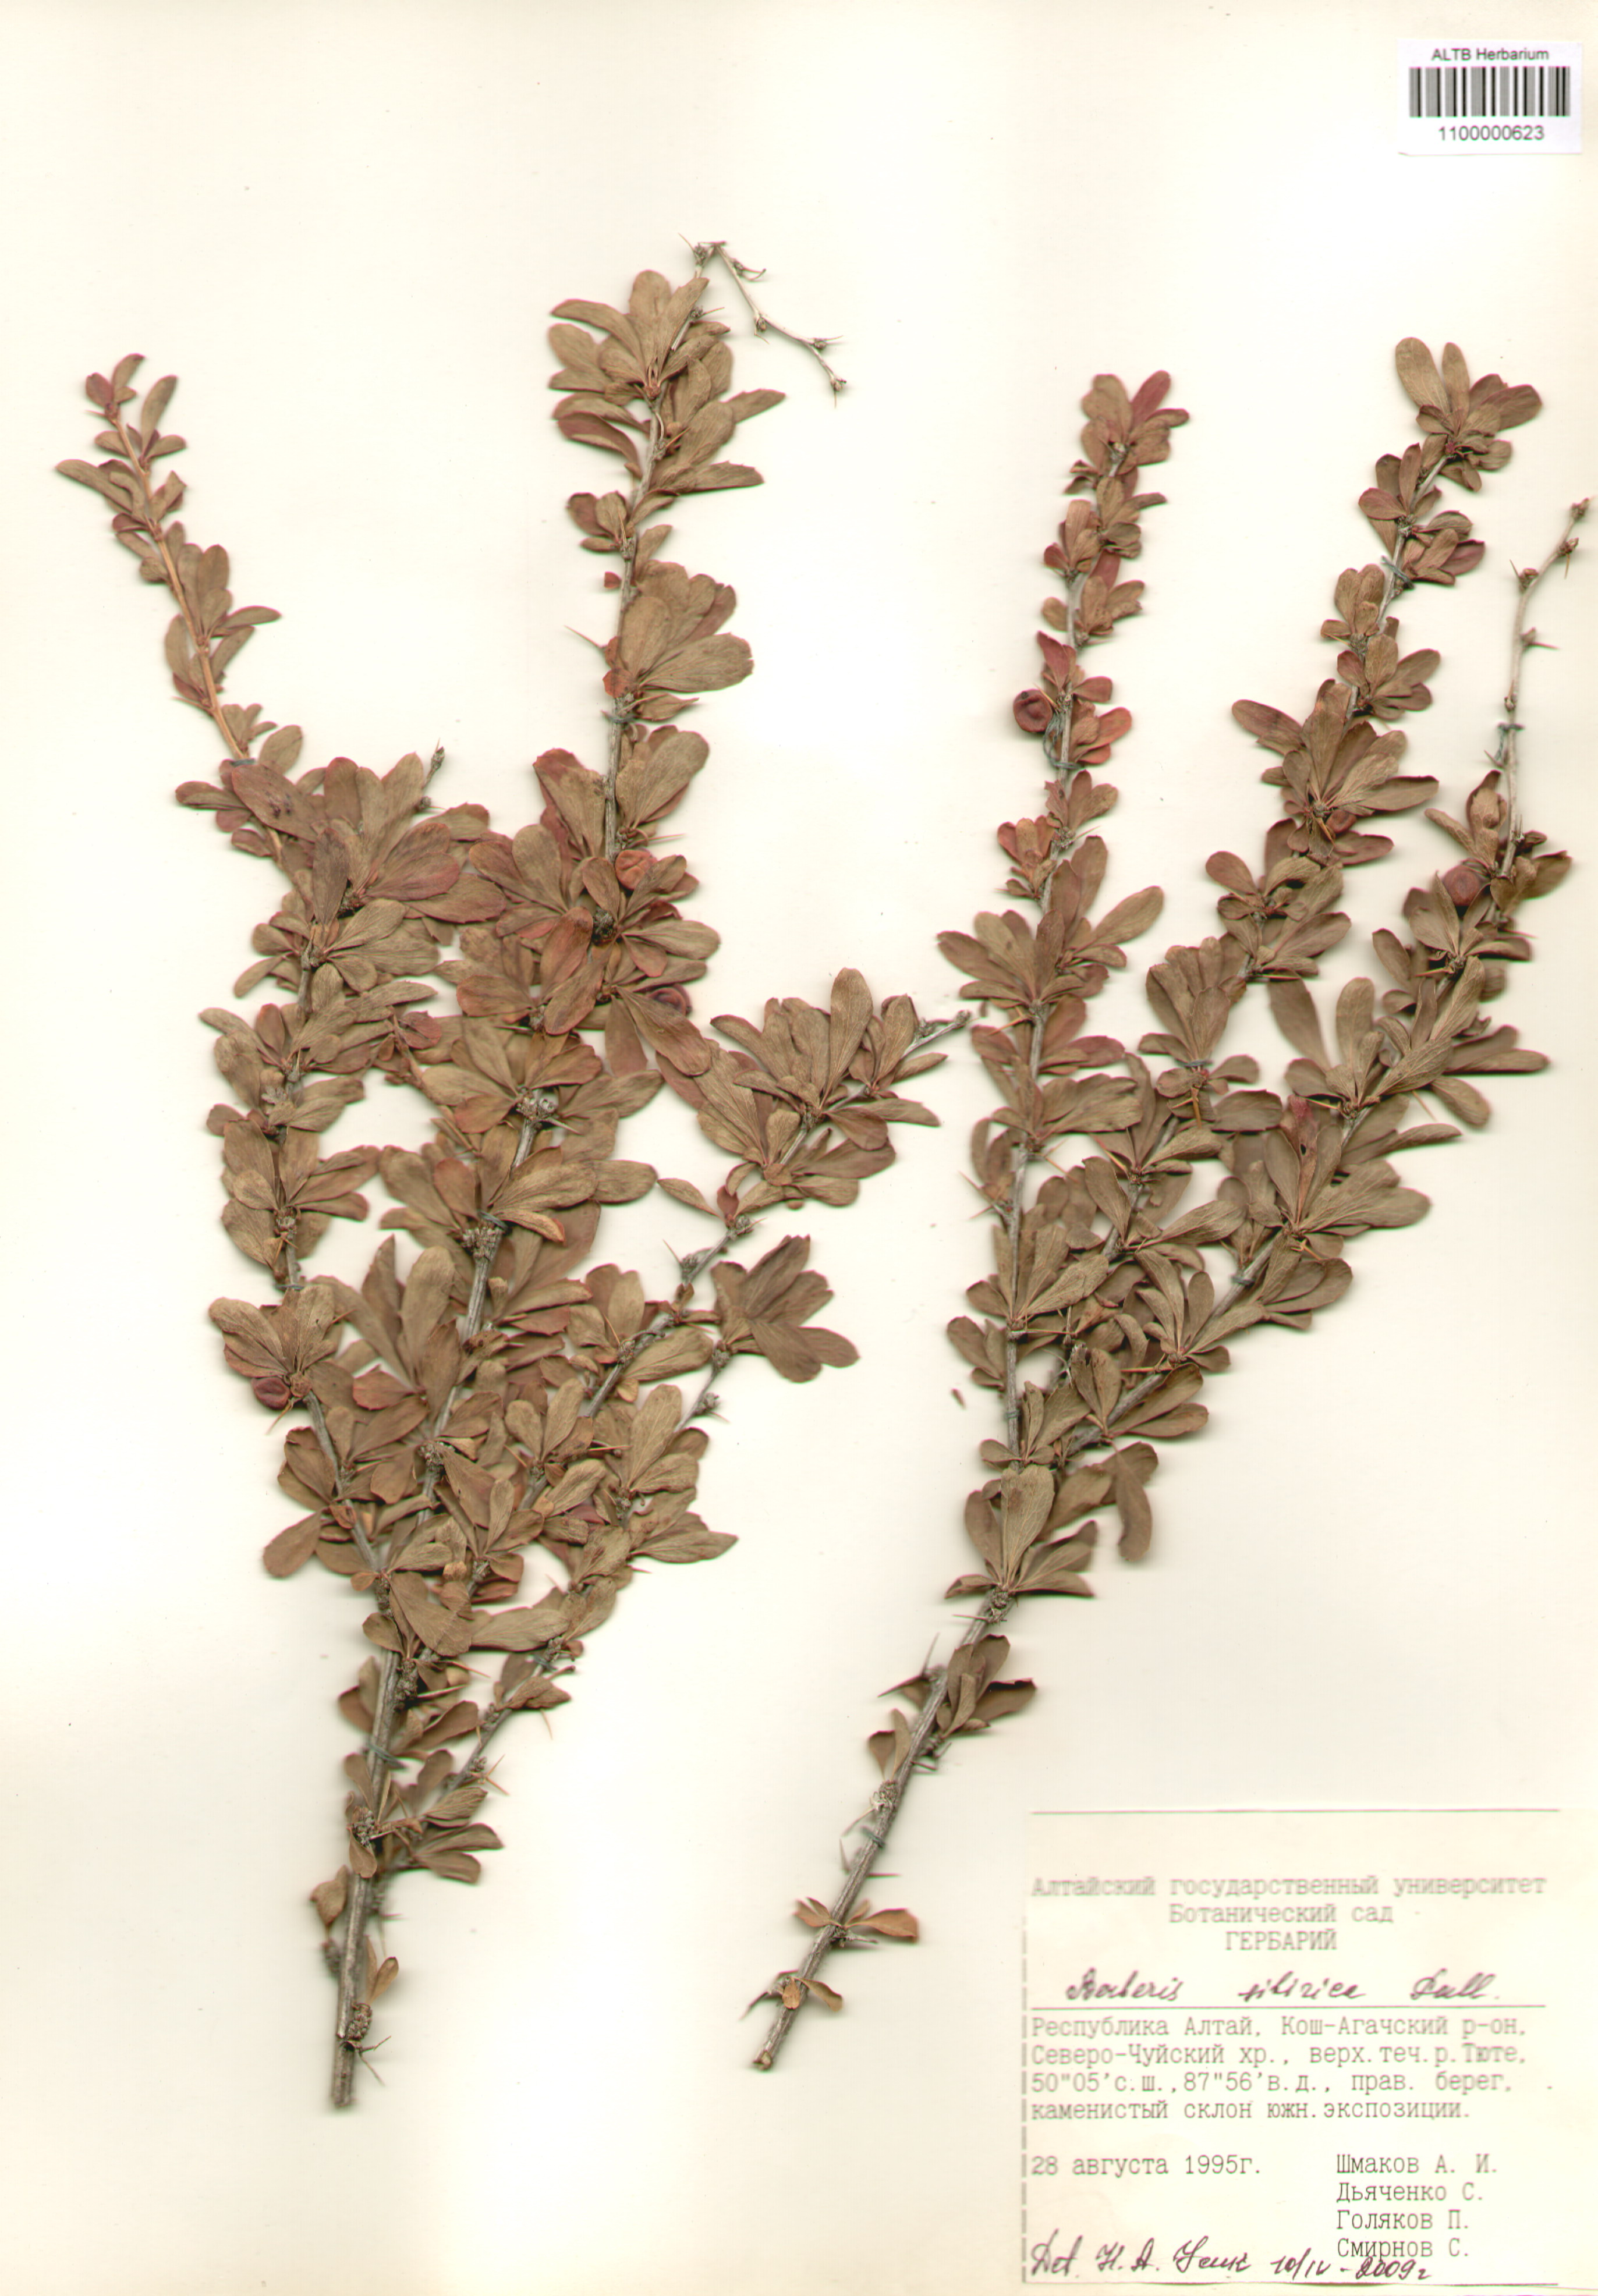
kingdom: Plantae
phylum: Tracheophyta
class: Magnoliopsida
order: Ranunculales
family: Berberidaceae
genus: Berberis
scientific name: Berberis sibirica
